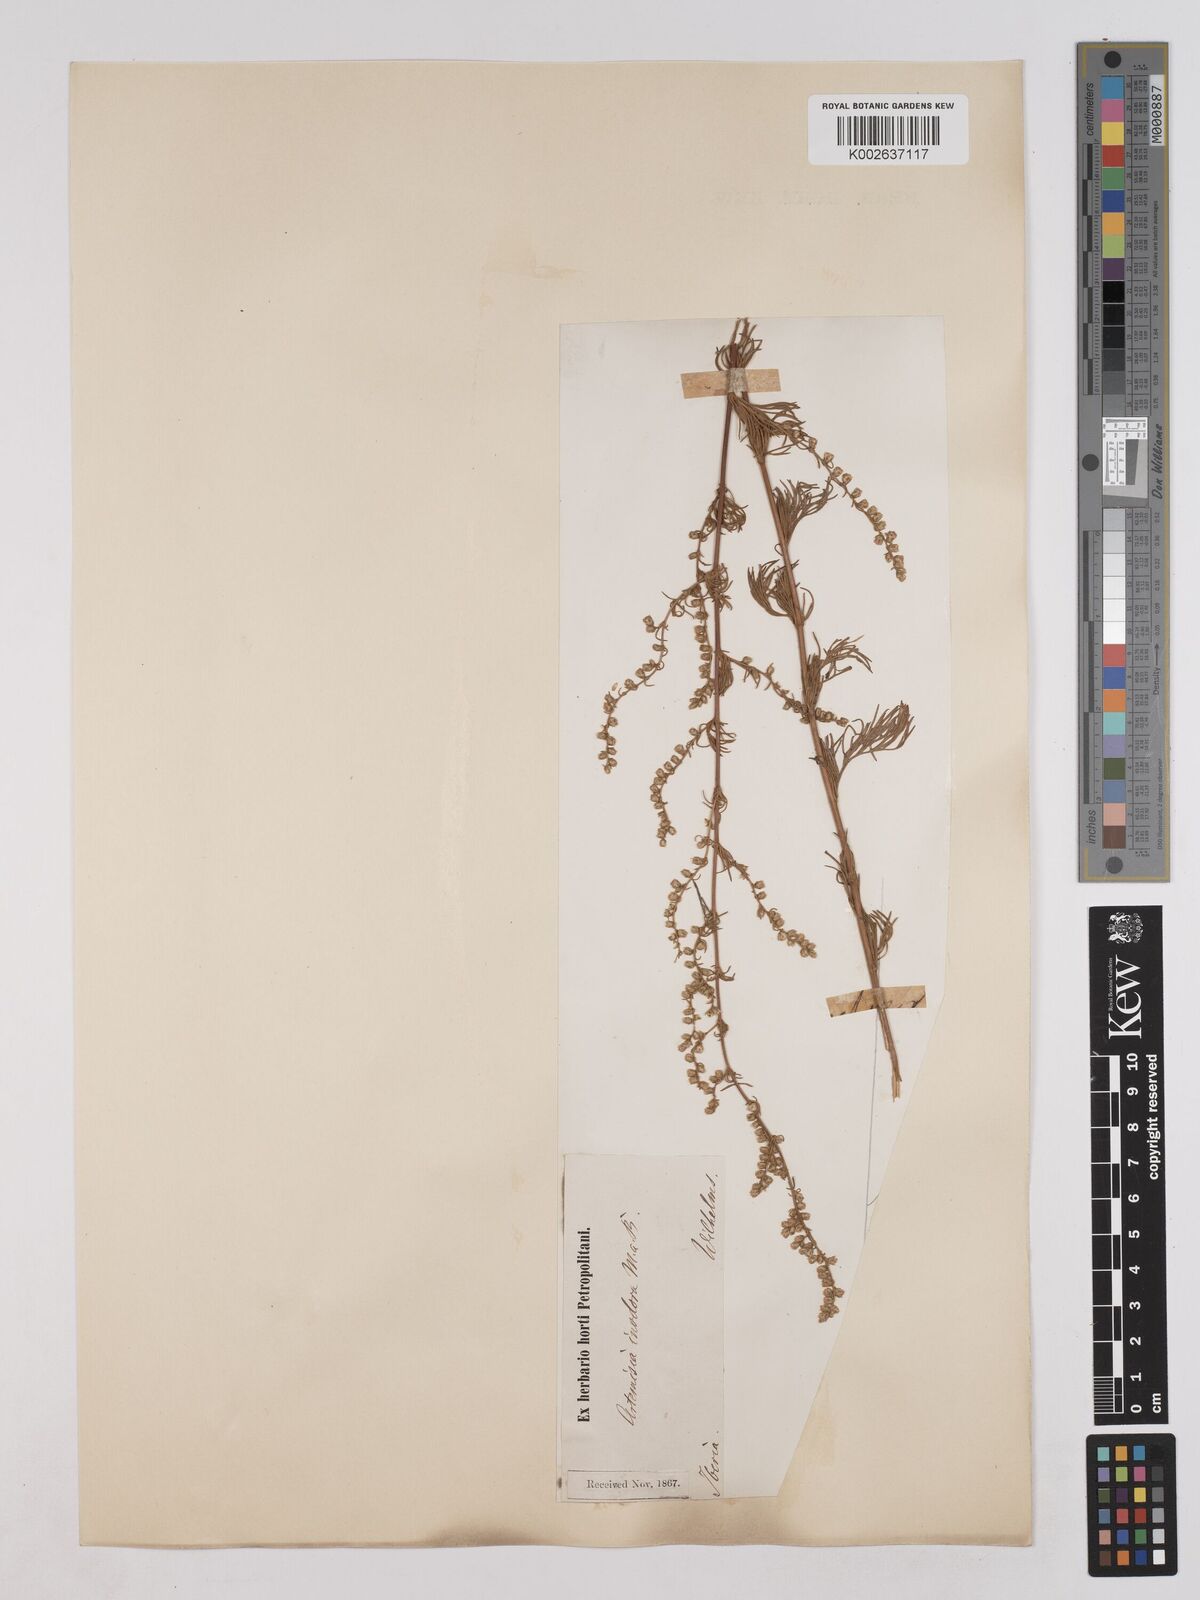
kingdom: Plantae
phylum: Tracheophyta
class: Magnoliopsida
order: Asterales
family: Asteraceae
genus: Artemisia
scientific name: Artemisia campestris
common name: Field wormwood
